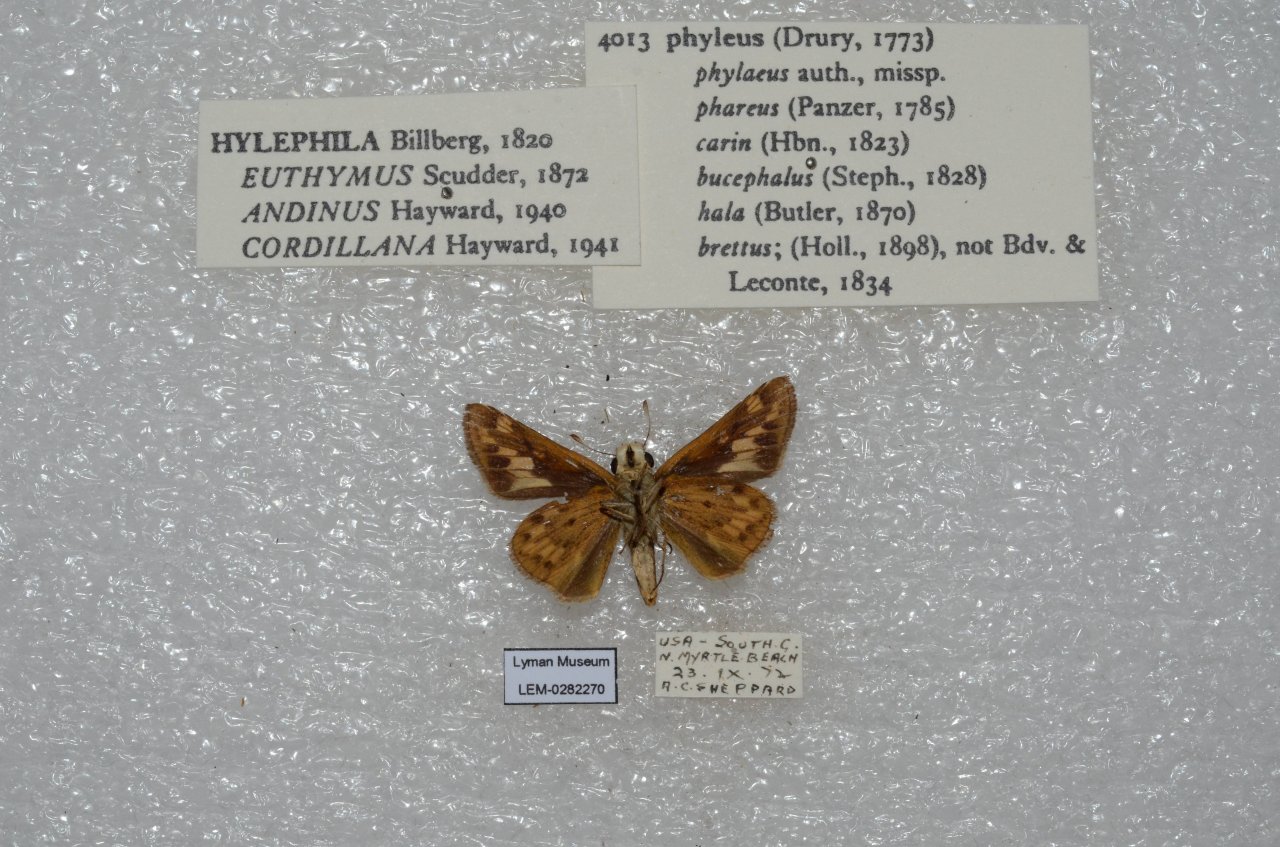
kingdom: Animalia
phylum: Arthropoda
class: Insecta
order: Lepidoptera
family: Hesperiidae
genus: Hylephila
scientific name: Hylephila phyleus
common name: Fiery Skipper
